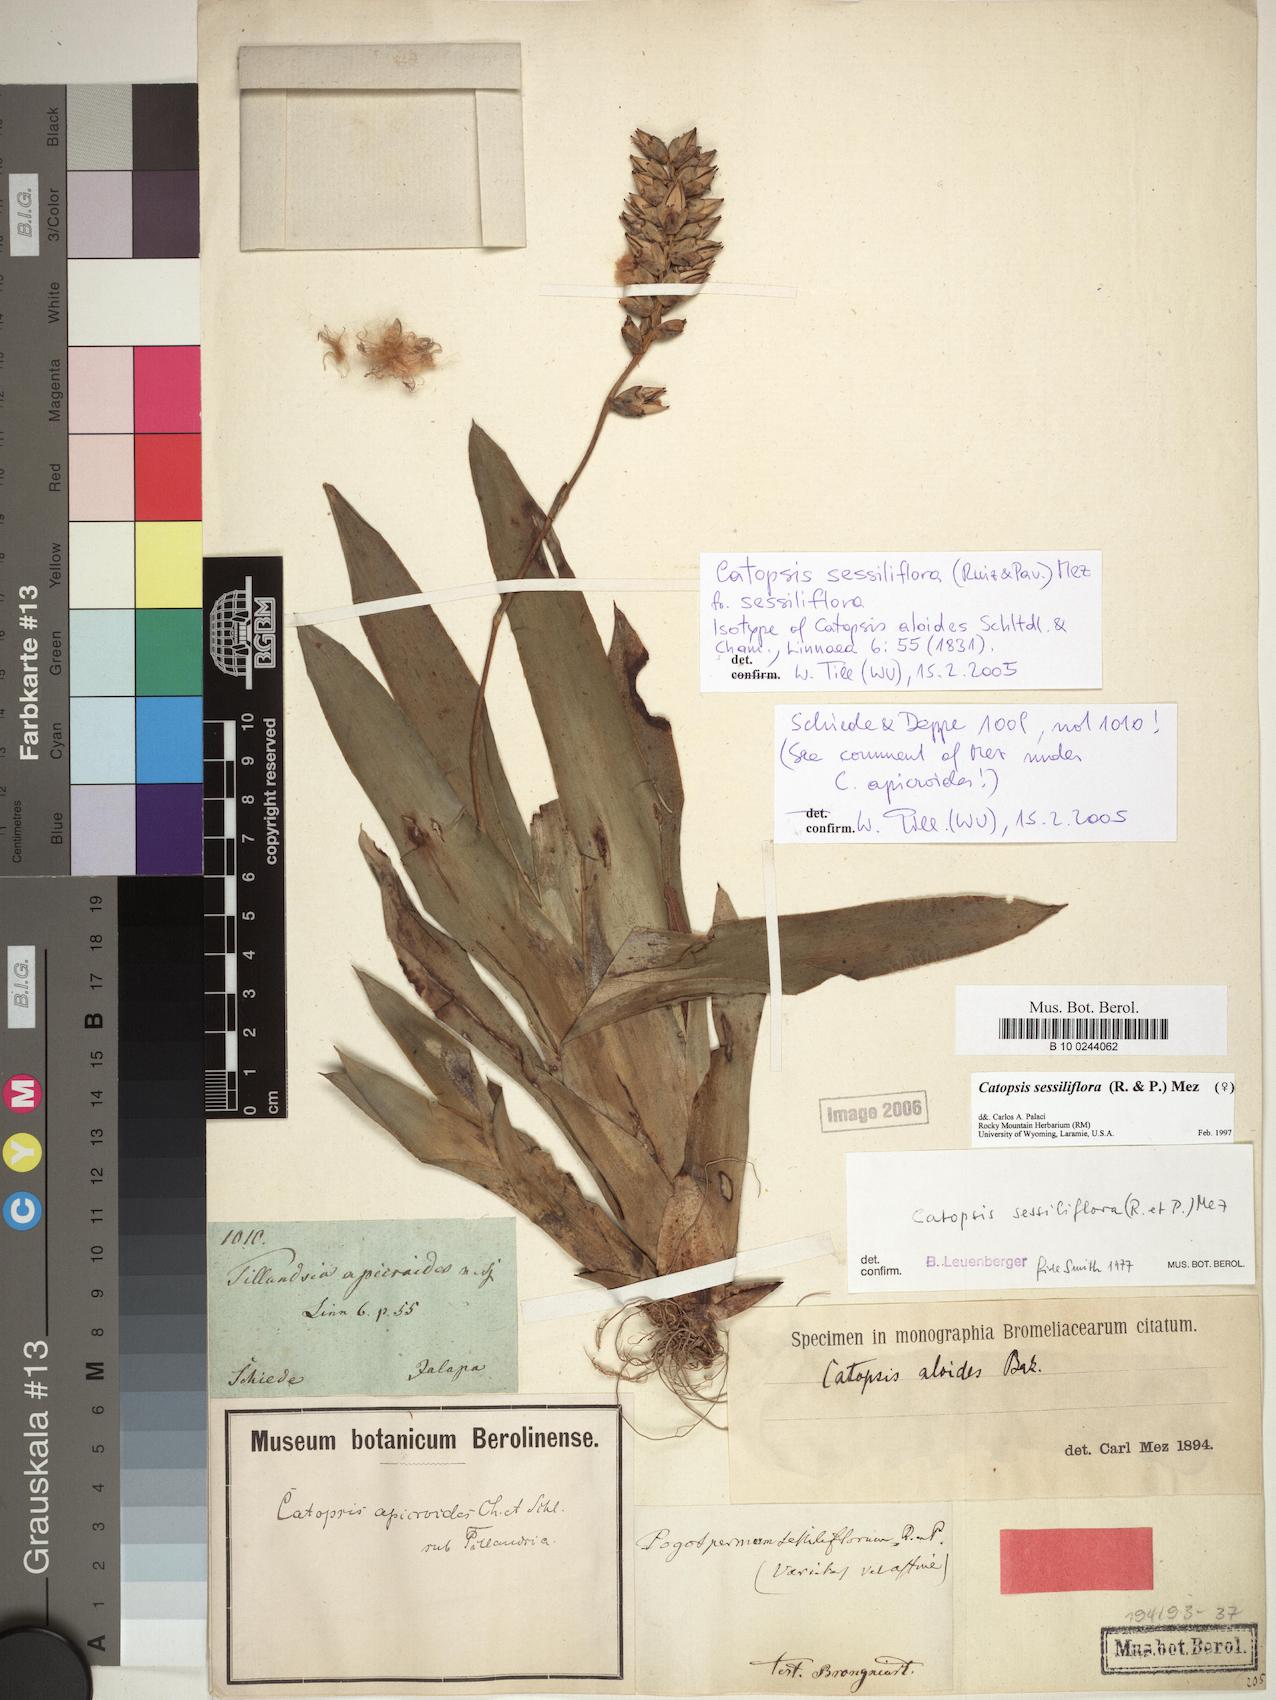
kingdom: Plantae
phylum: Tracheophyta
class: Liliopsida
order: Poales
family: Bromeliaceae
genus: Catopsis
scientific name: Catopsis sessiliflora
